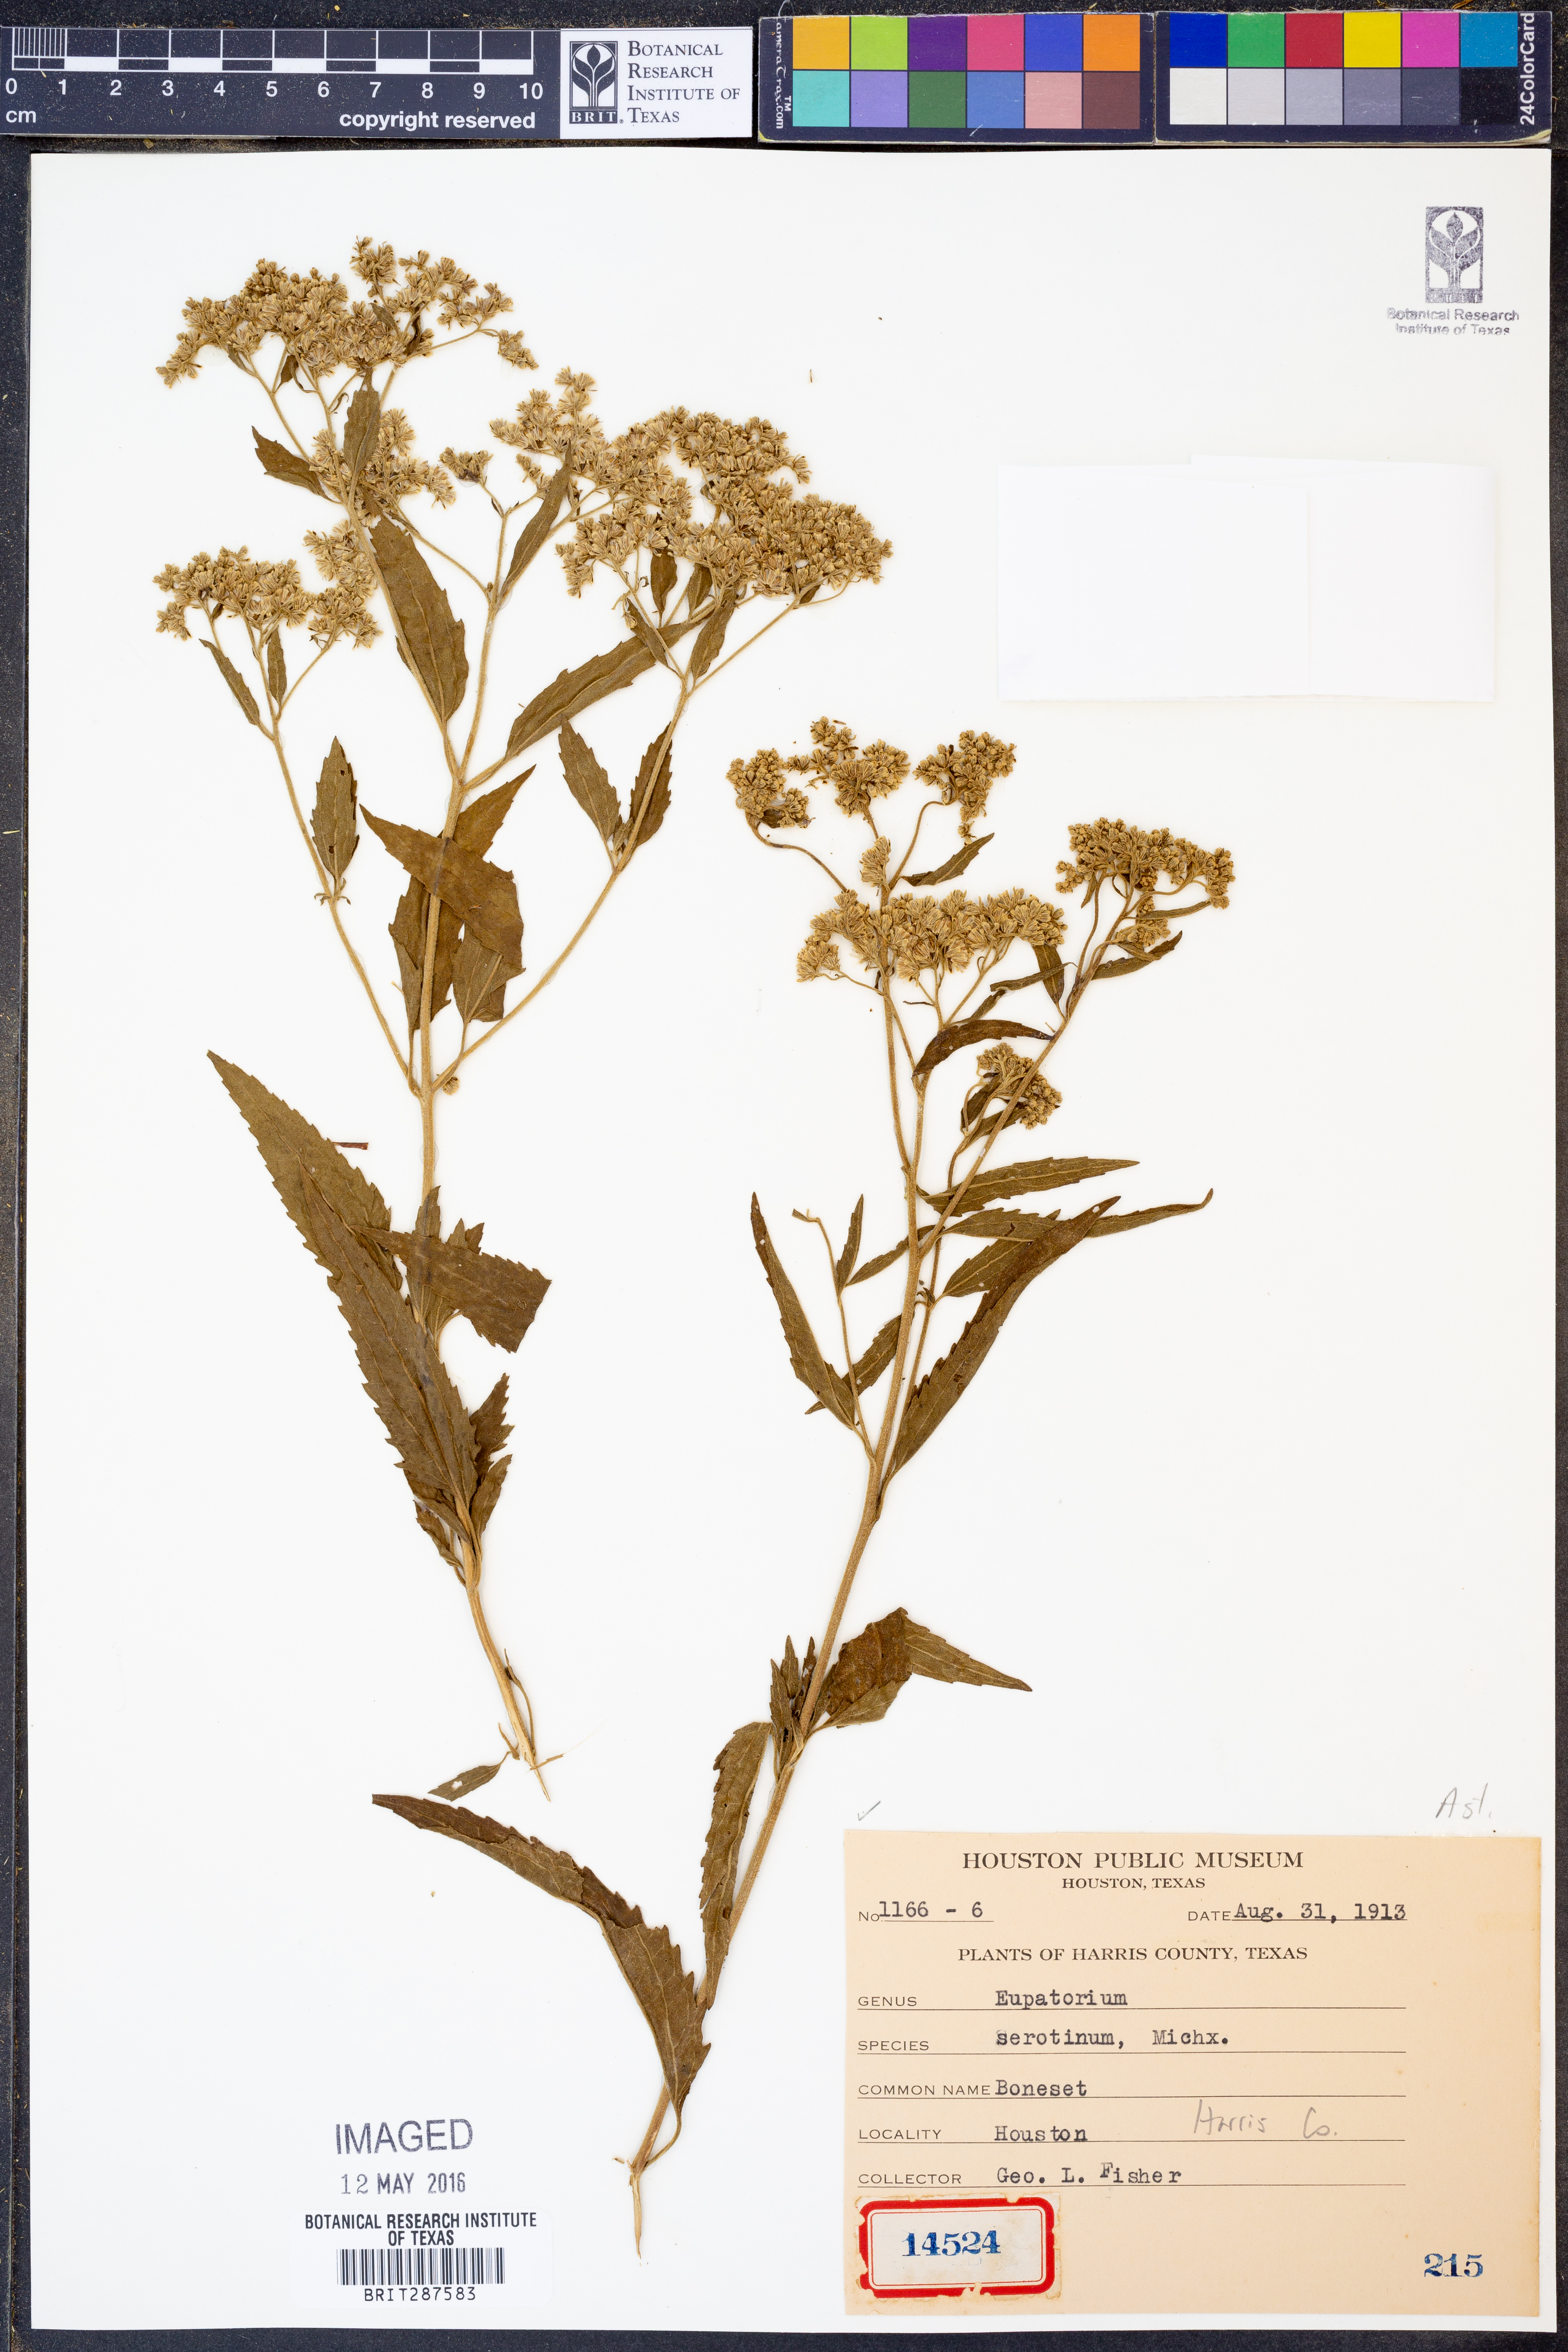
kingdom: Plantae
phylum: Tracheophyta
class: Magnoliopsida
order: Asterales
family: Asteraceae
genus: Eupatorium
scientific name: Eupatorium serotinum
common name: Late boneset
